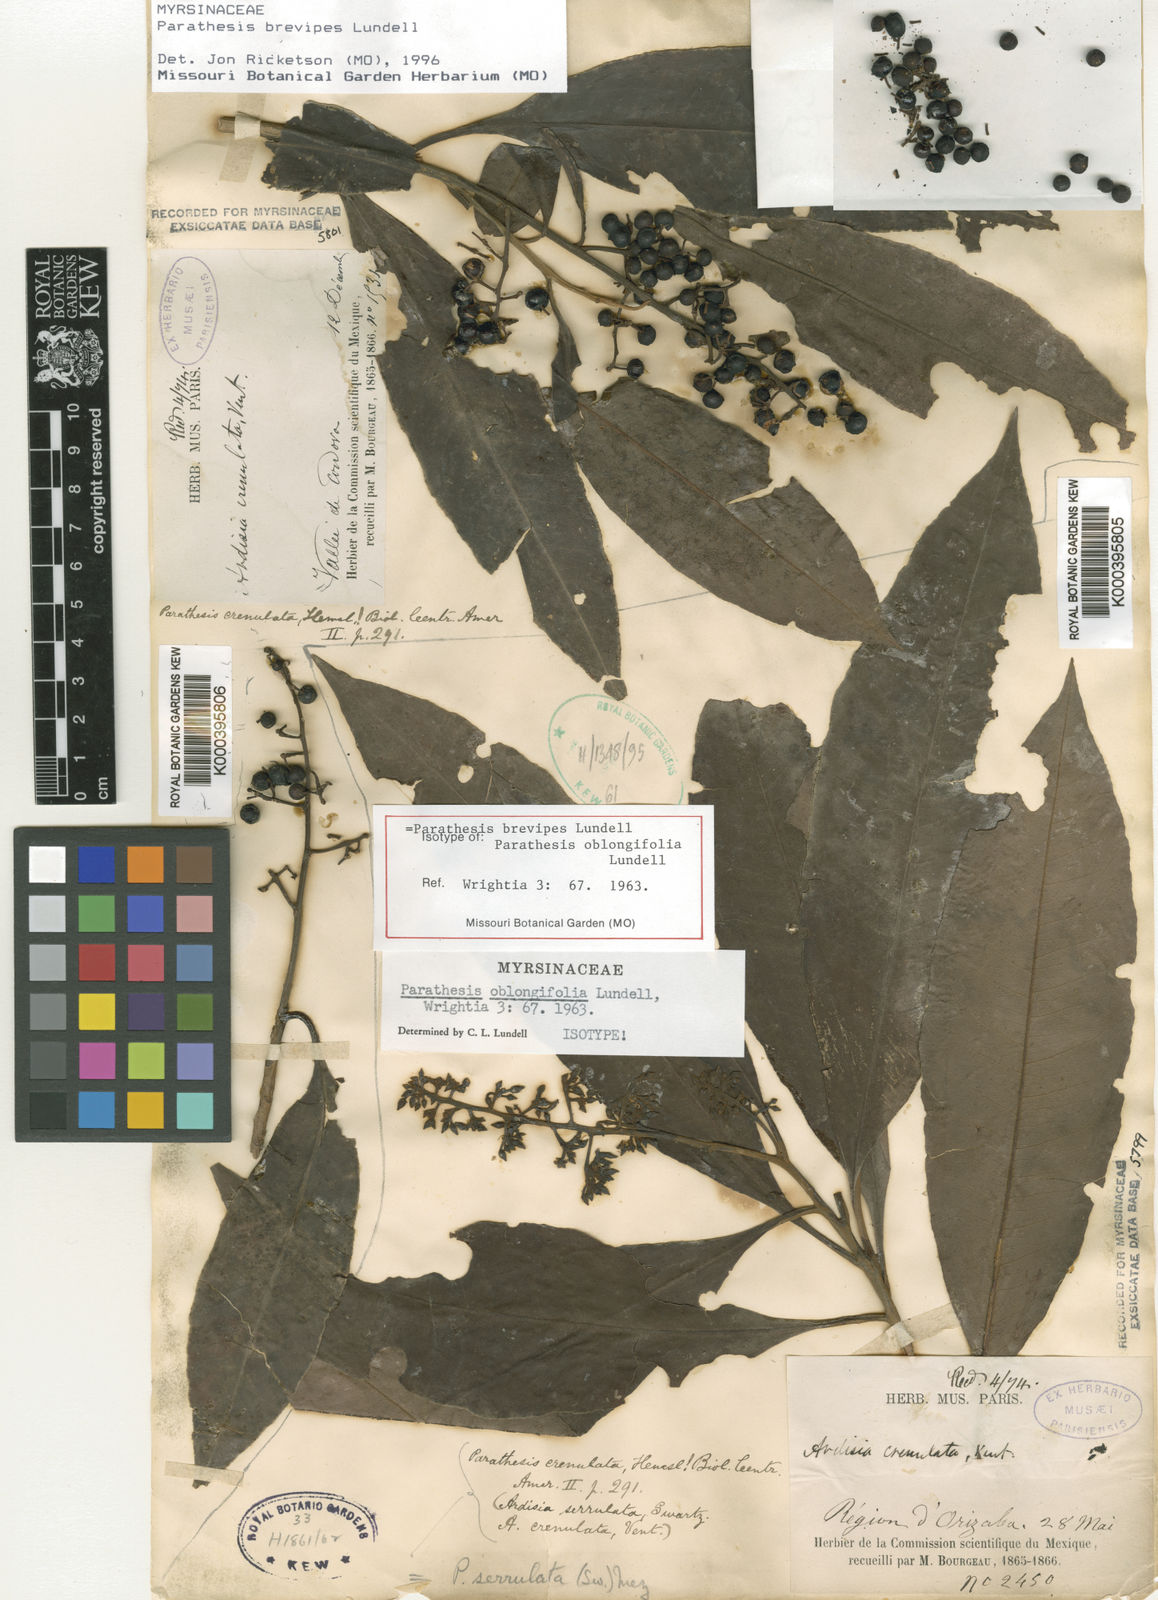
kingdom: Plantae
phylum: Tracheophyta
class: Magnoliopsida
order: Ericales
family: Primulaceae
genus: Parathesis
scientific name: Parathesis donnell-smithii
